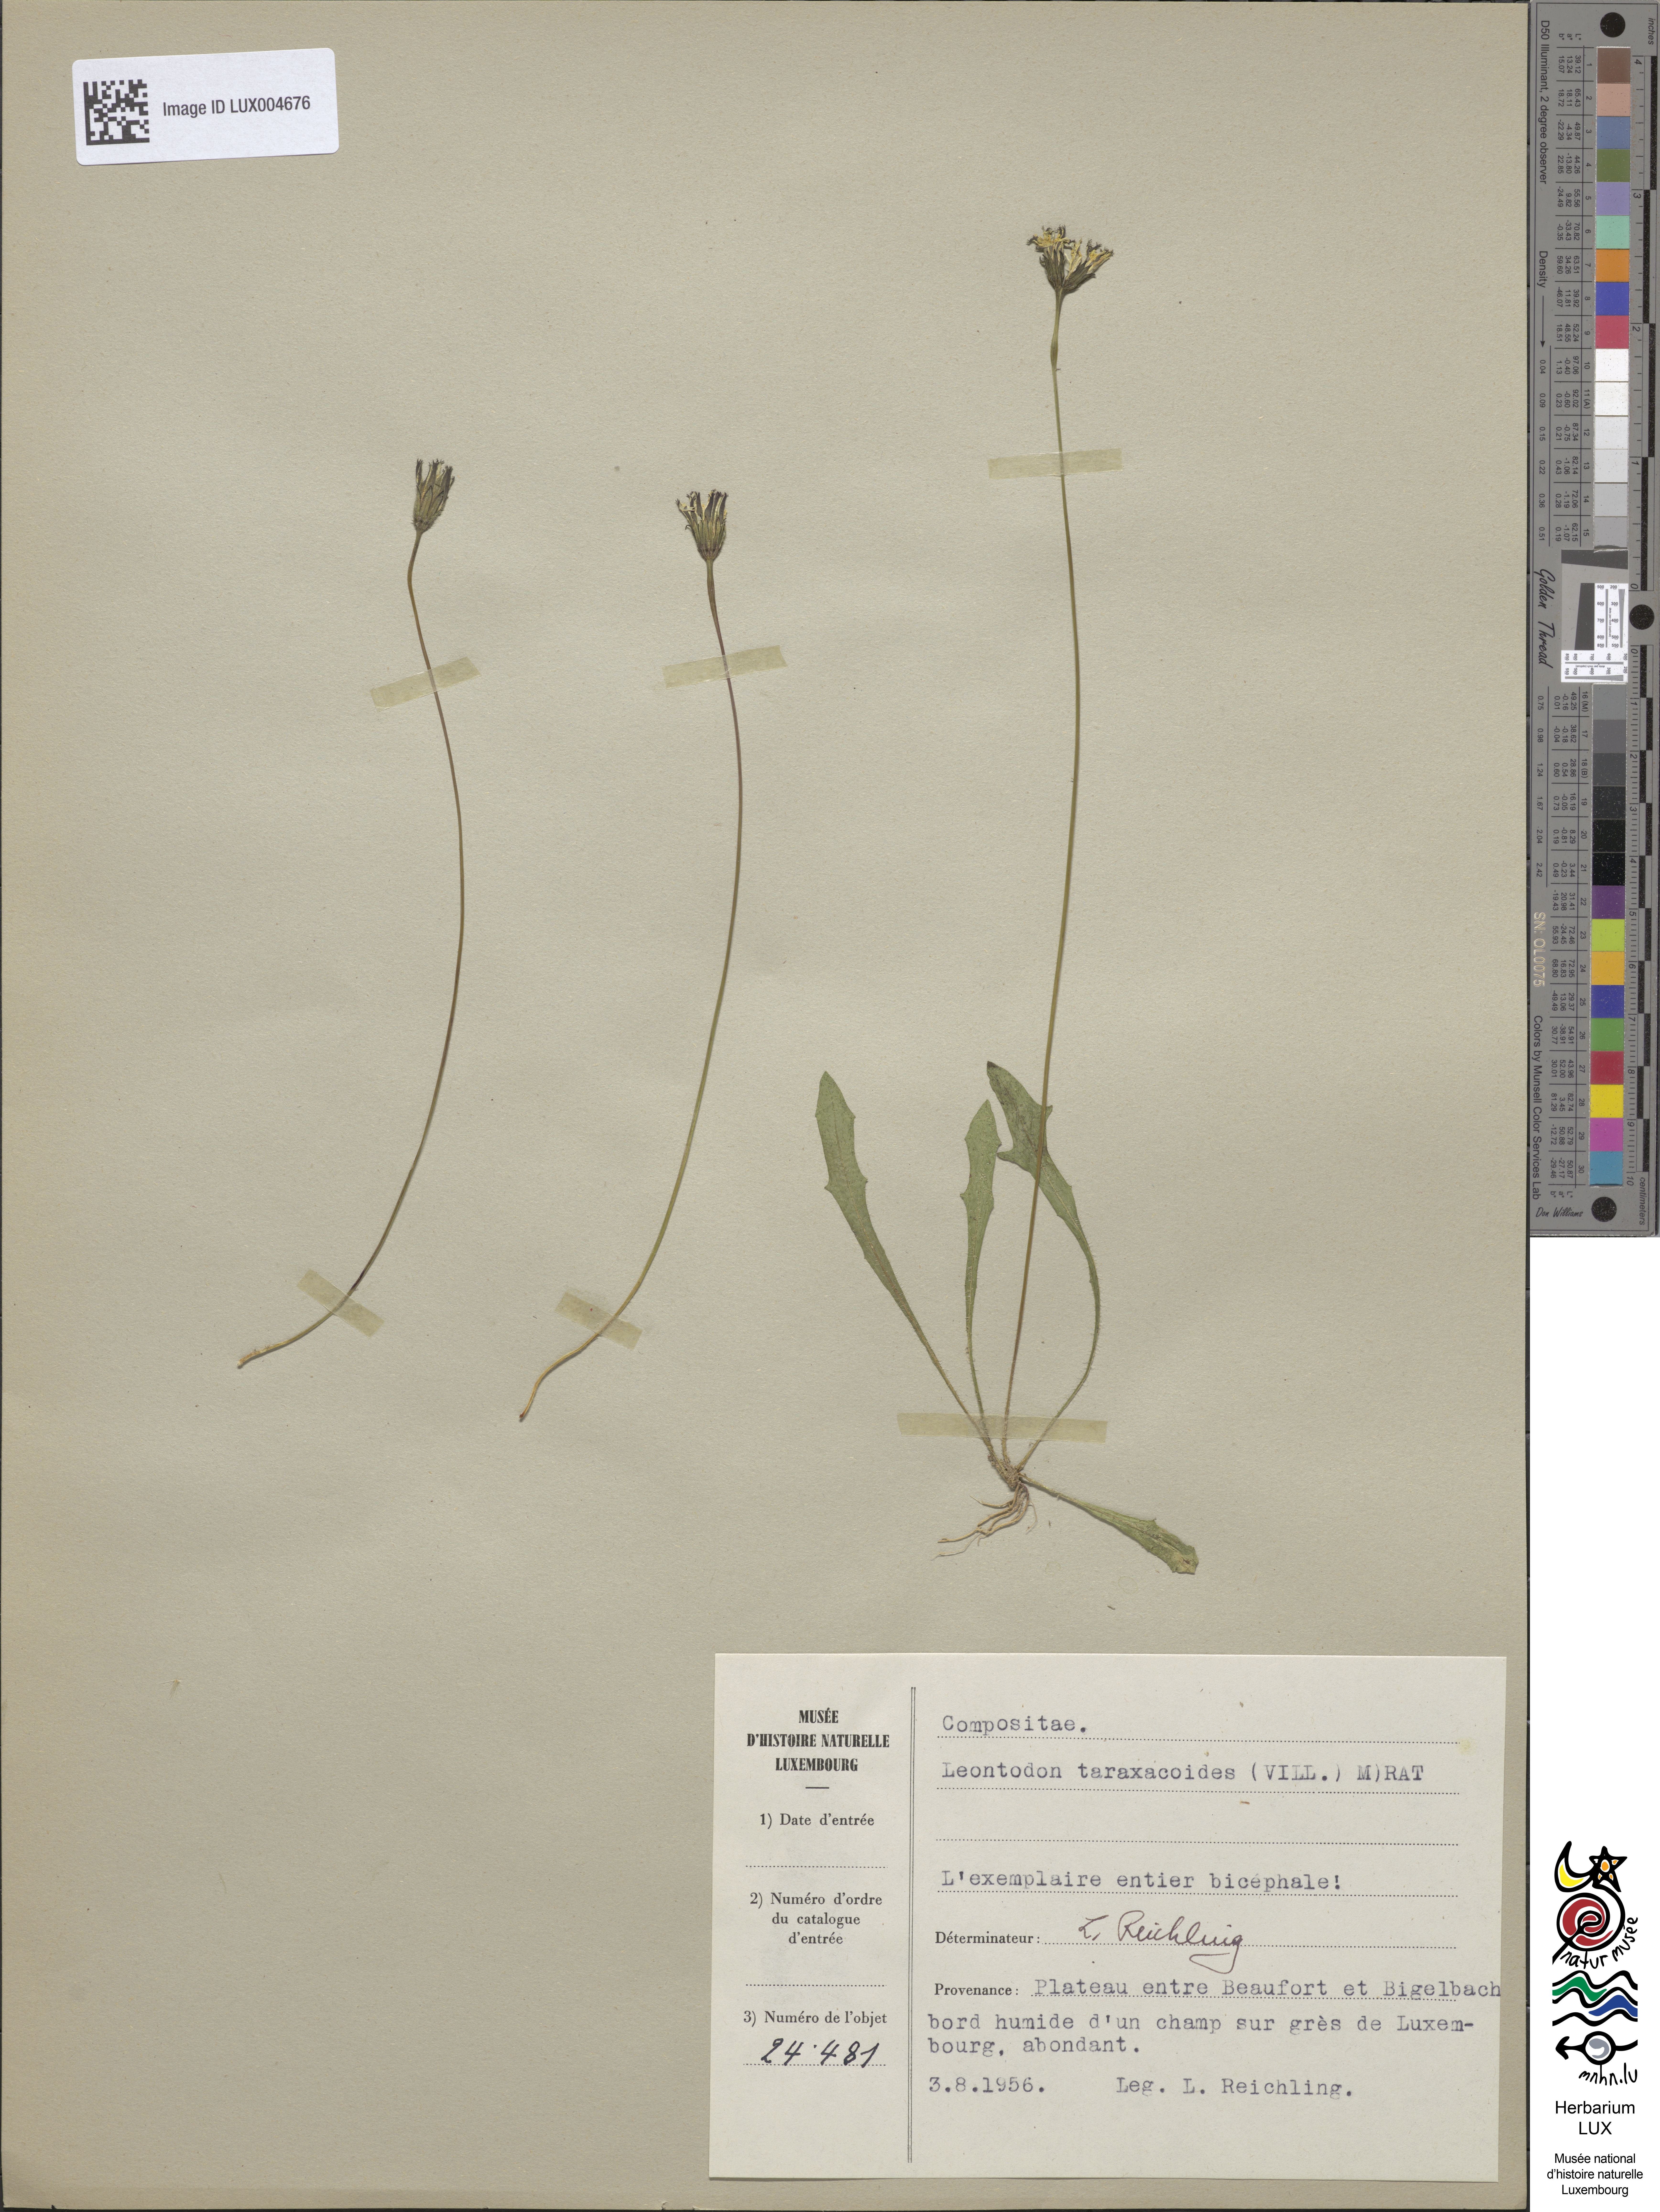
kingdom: Plantae
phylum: Tracheophyta
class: Magnoliopsida
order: Asterales
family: Asteraceae
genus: Thrincia
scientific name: Thrincia saxatilis
